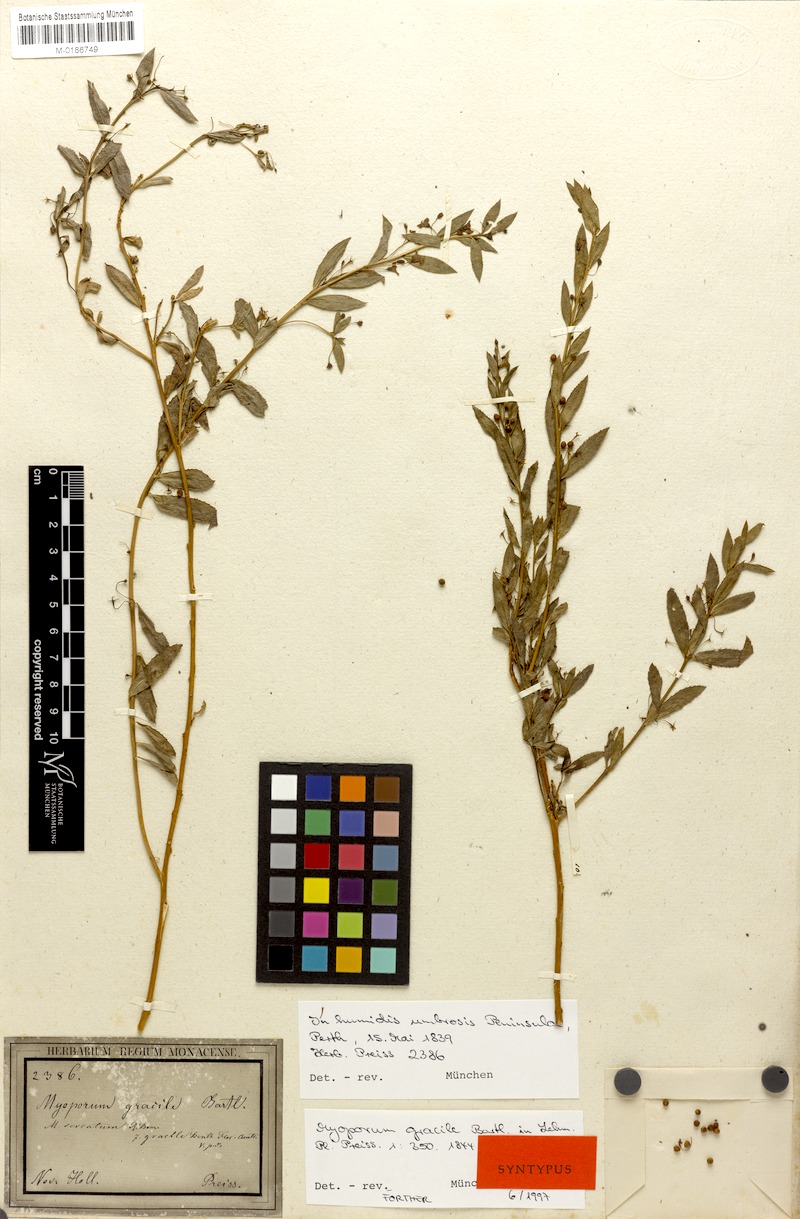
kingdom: Plantae
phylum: Tracheophyta
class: Magnoliopsida
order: Lamiales
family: Scrophulariaceae
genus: Myoporum
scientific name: Myoporum insulare
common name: Common boobialla
